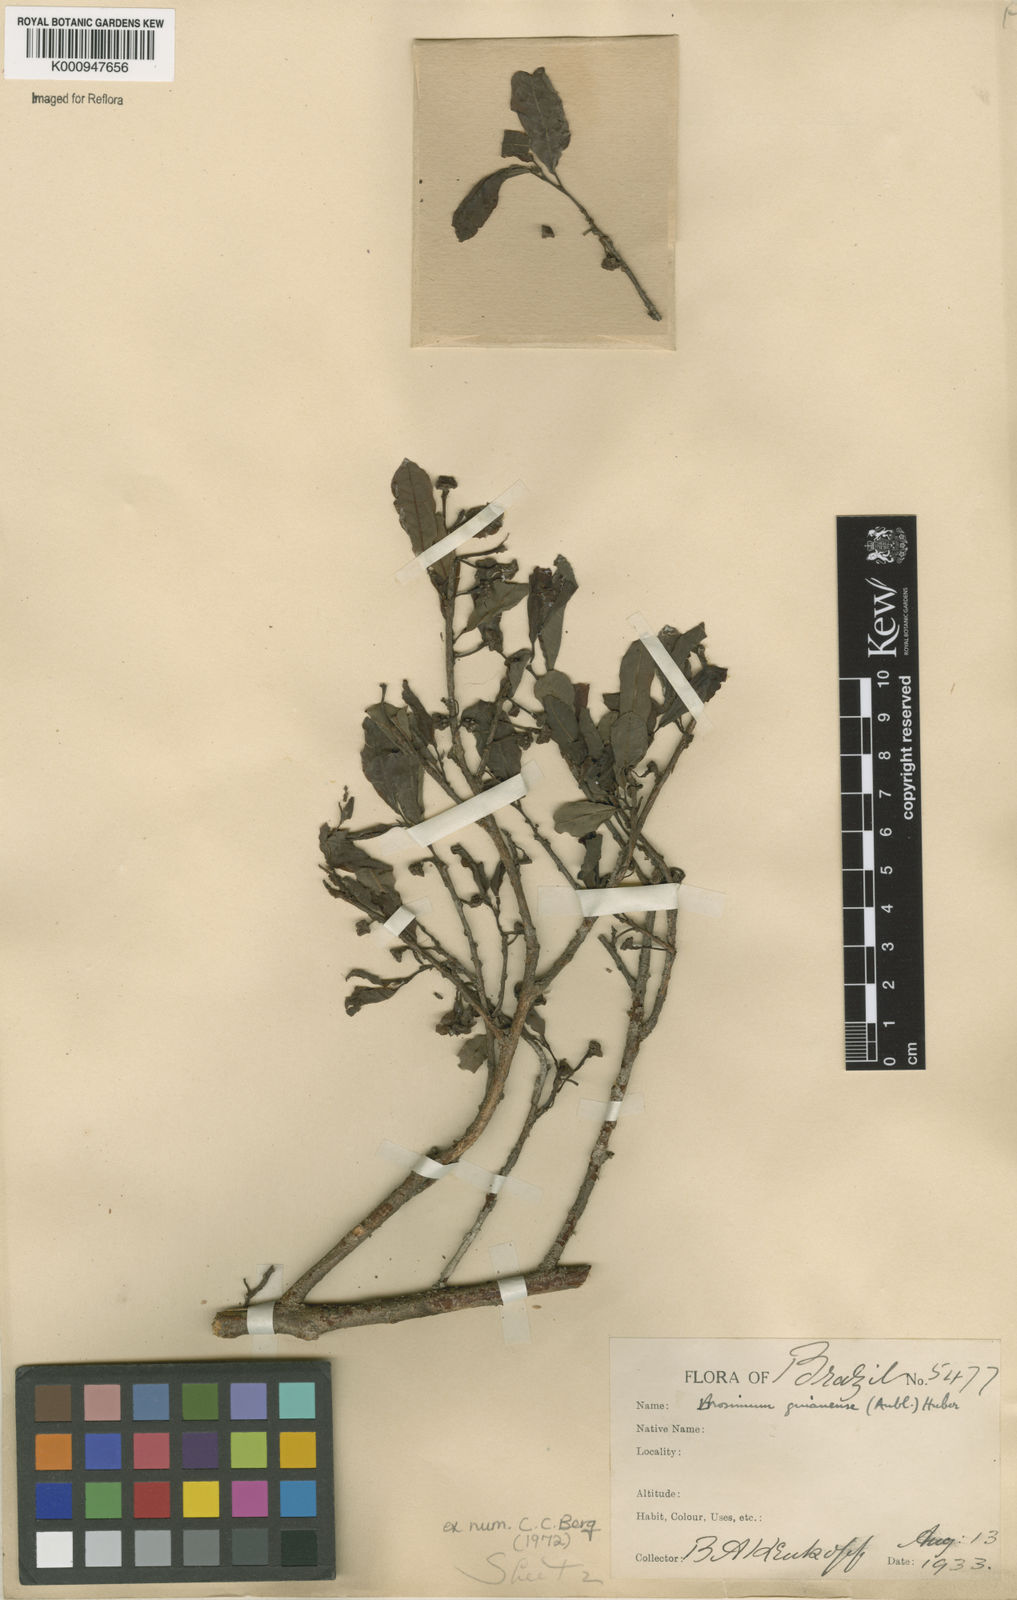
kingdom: Plantae
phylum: Tracheophyta
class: Magnoliopsida
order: Rosales
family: Moraceae
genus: Brosimum
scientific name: Brosimum
